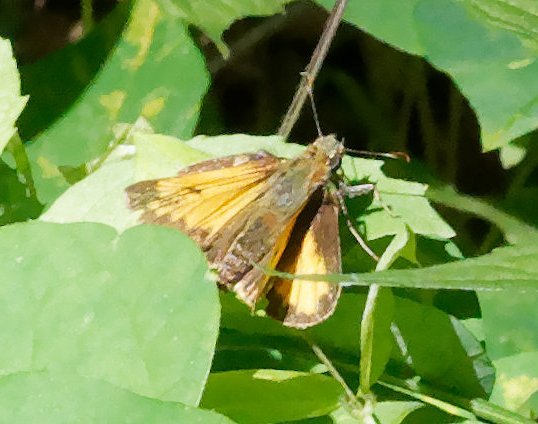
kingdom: Animalia
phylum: Arthropoda
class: Insecta
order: Lepidoptera
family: Hesperiidae
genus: Lon
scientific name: Lon hobomok
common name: Hobomok Skipper
